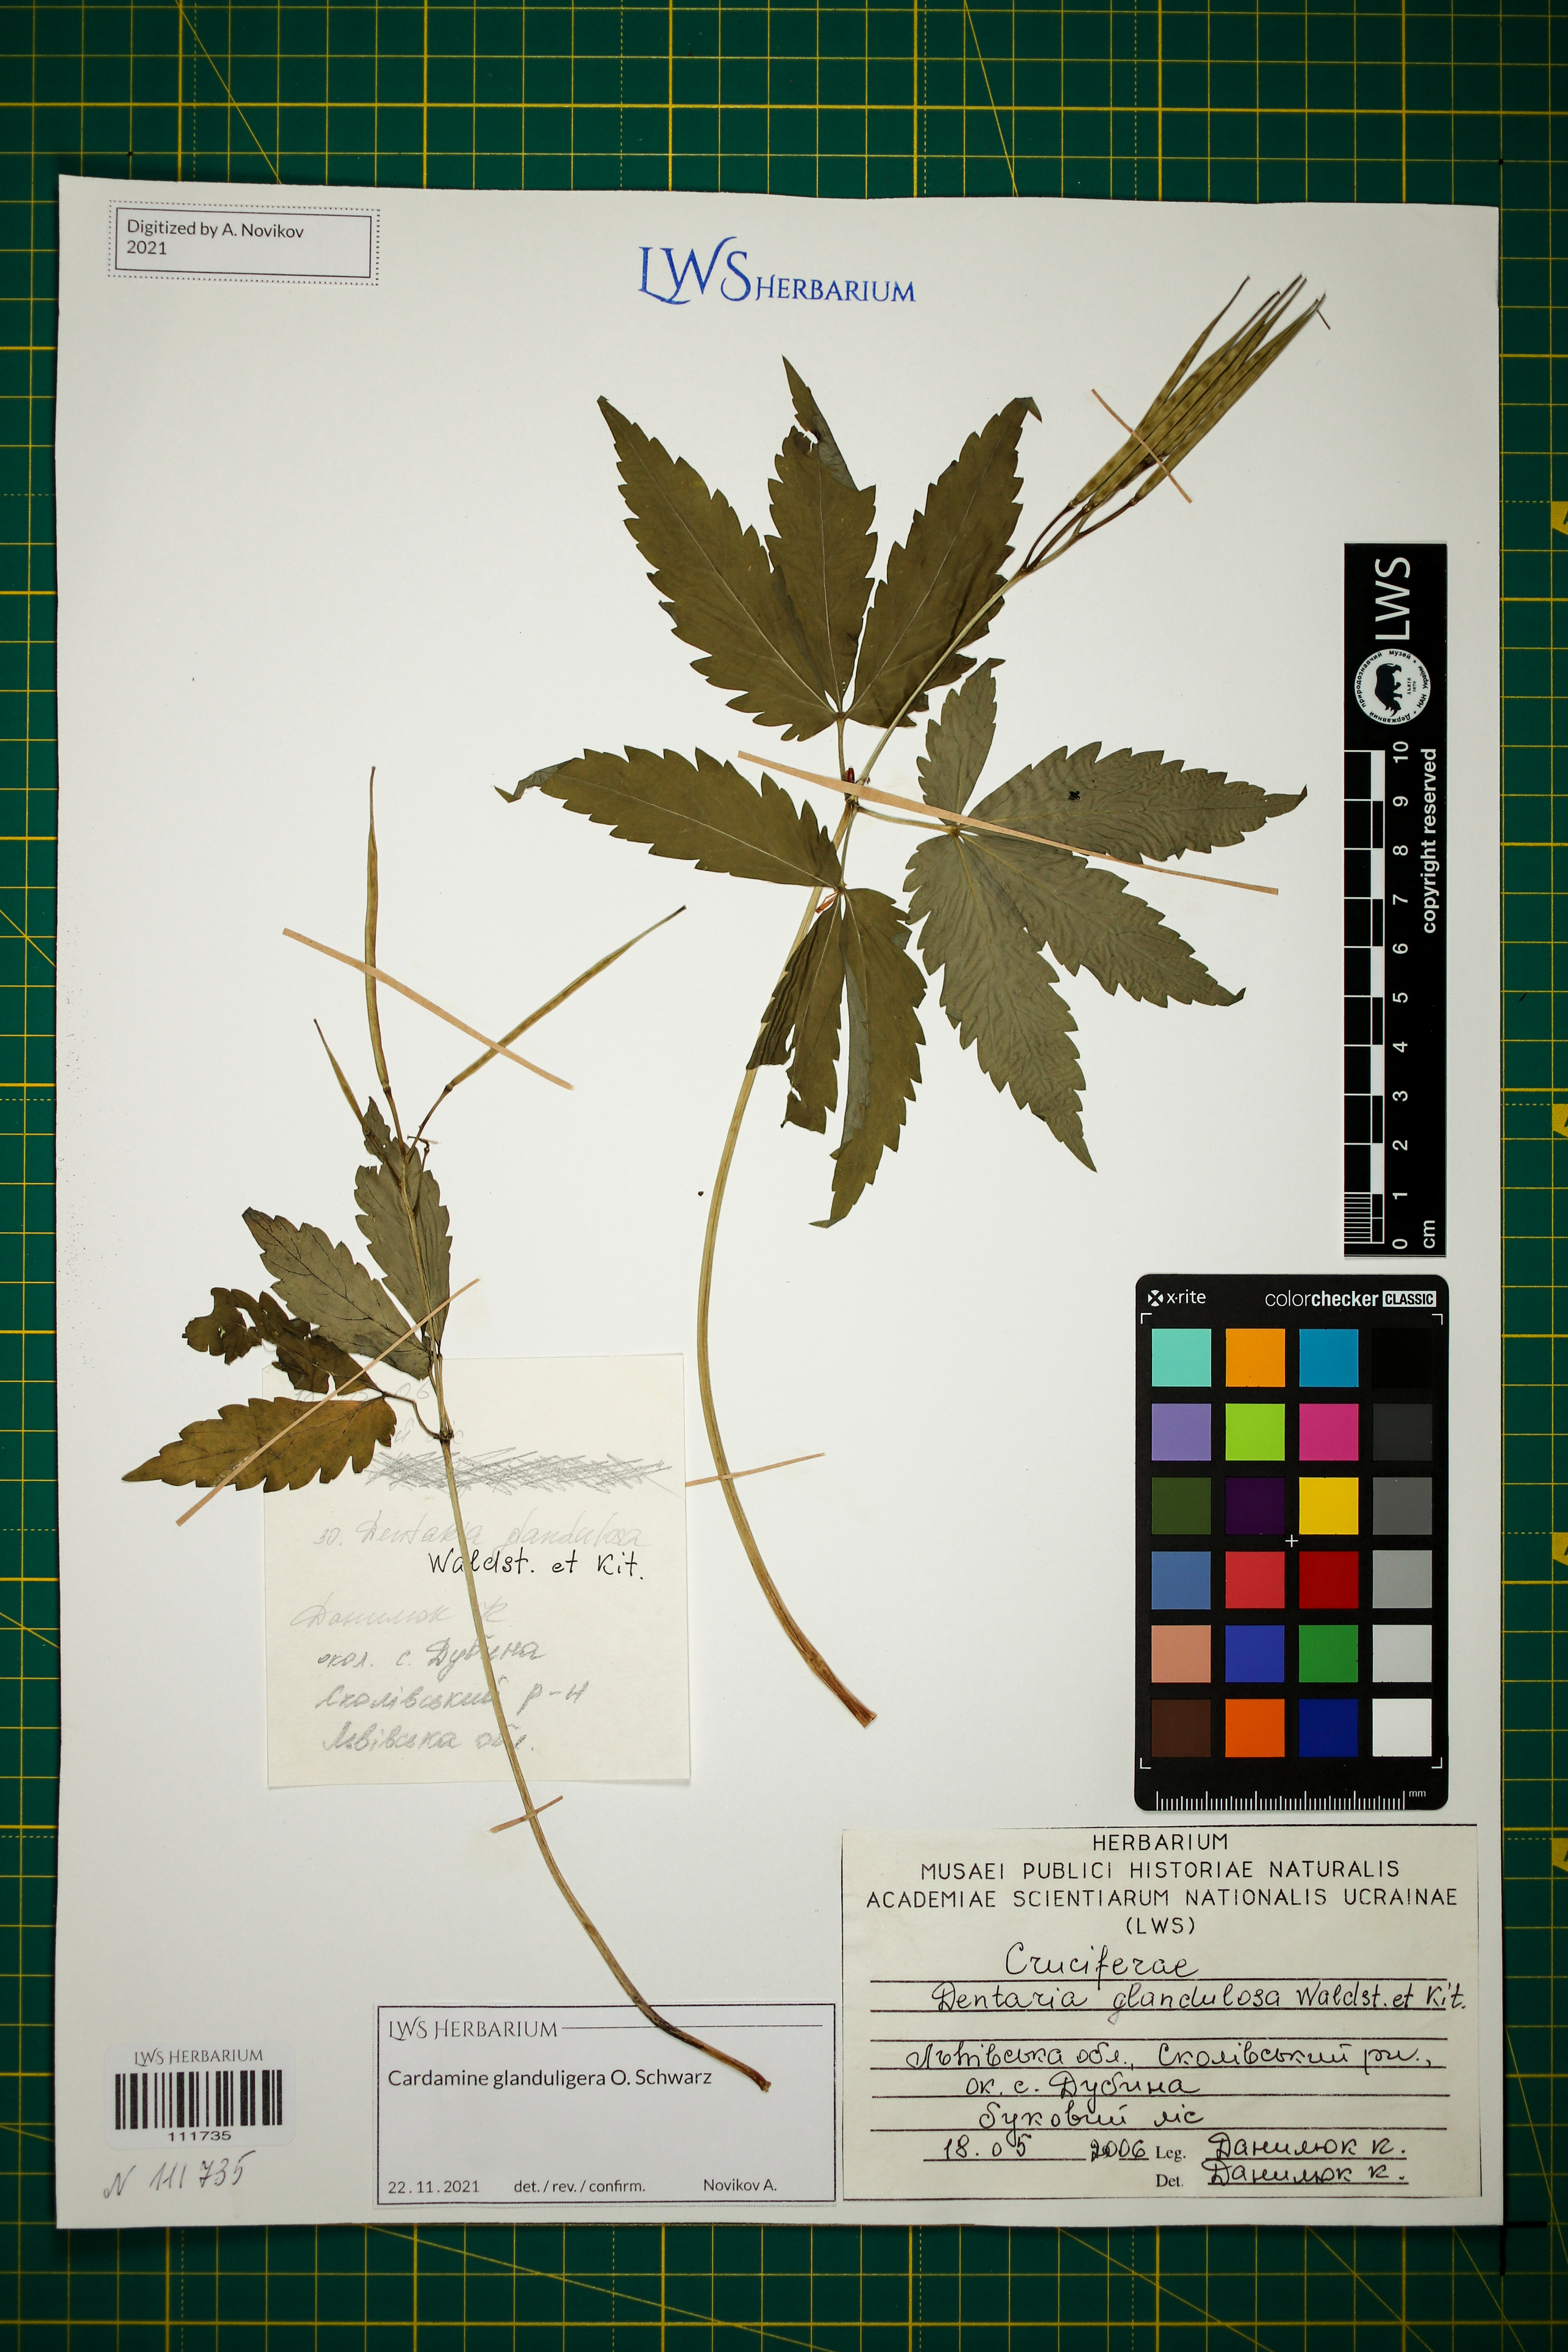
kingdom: Plantae
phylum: Tracheophyta
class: Magnoliopsida
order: Brassicales
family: Brassicaceae
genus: Cardamine
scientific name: Cardamine glanduligera
